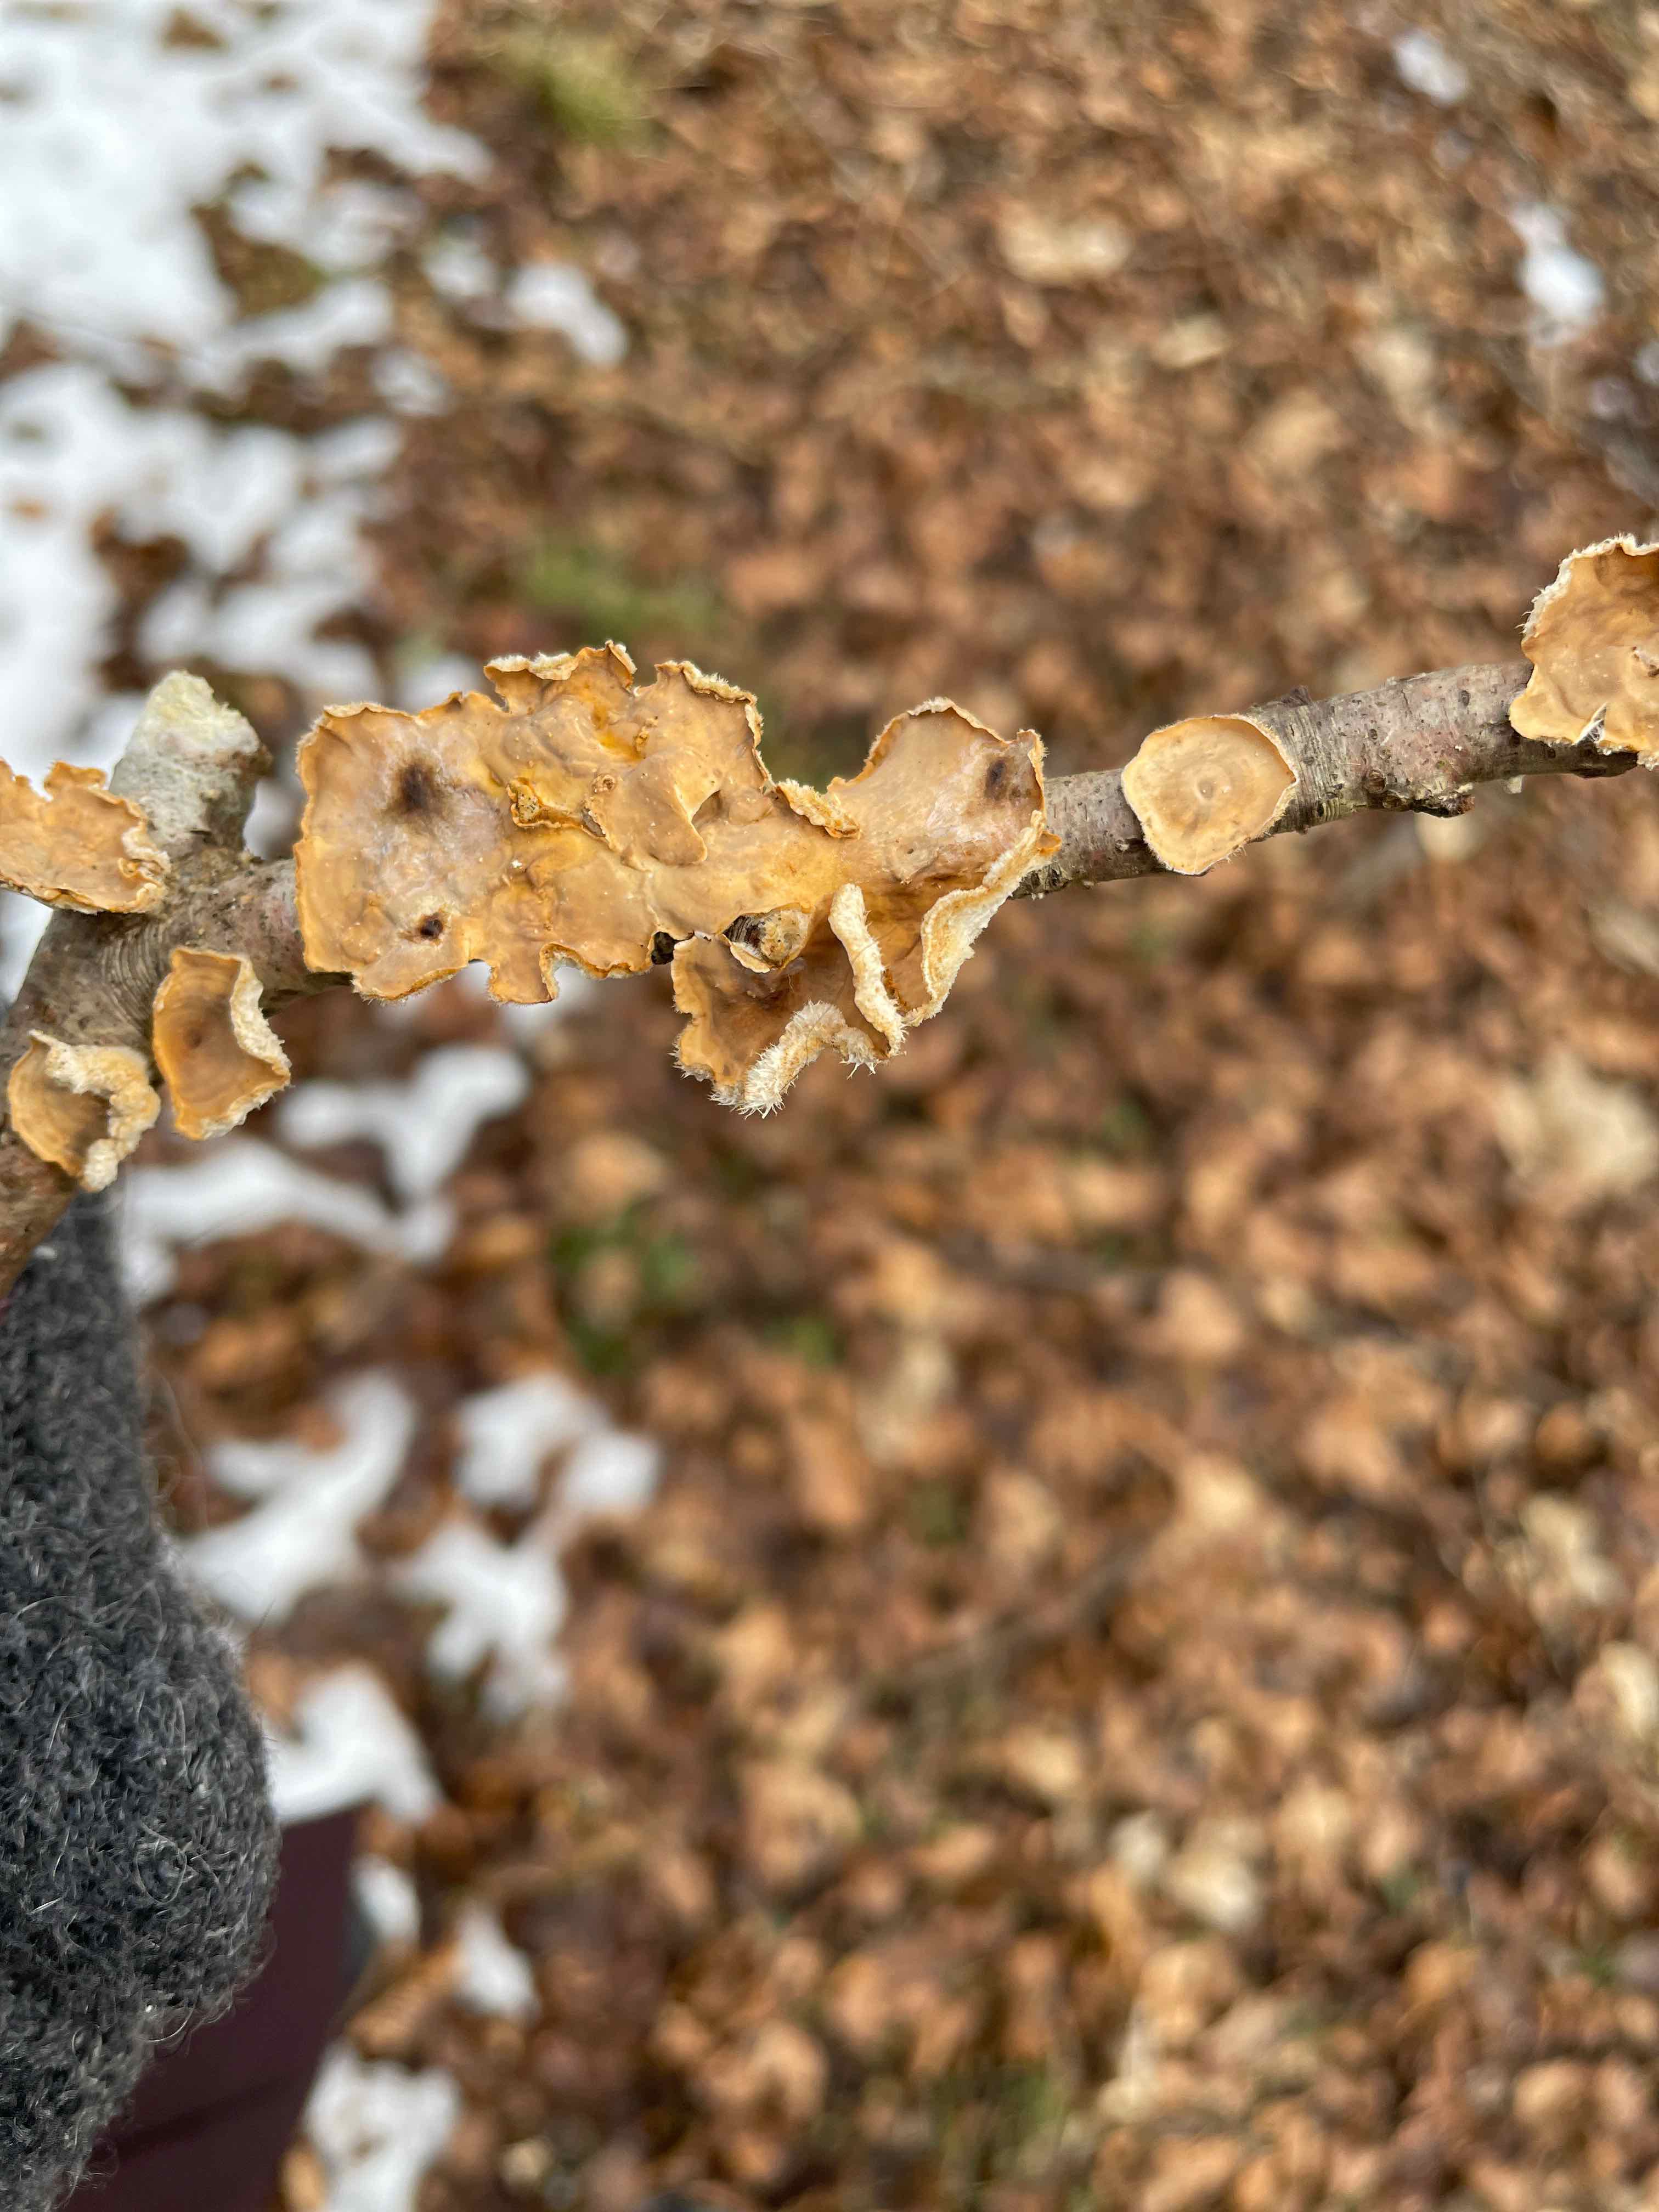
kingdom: Fungi
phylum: Basidiomycota
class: Agaricomycetes
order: Russulales
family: Stereaceae
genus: Stereum
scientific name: Stereum hirsutum
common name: håret lædersvamp
